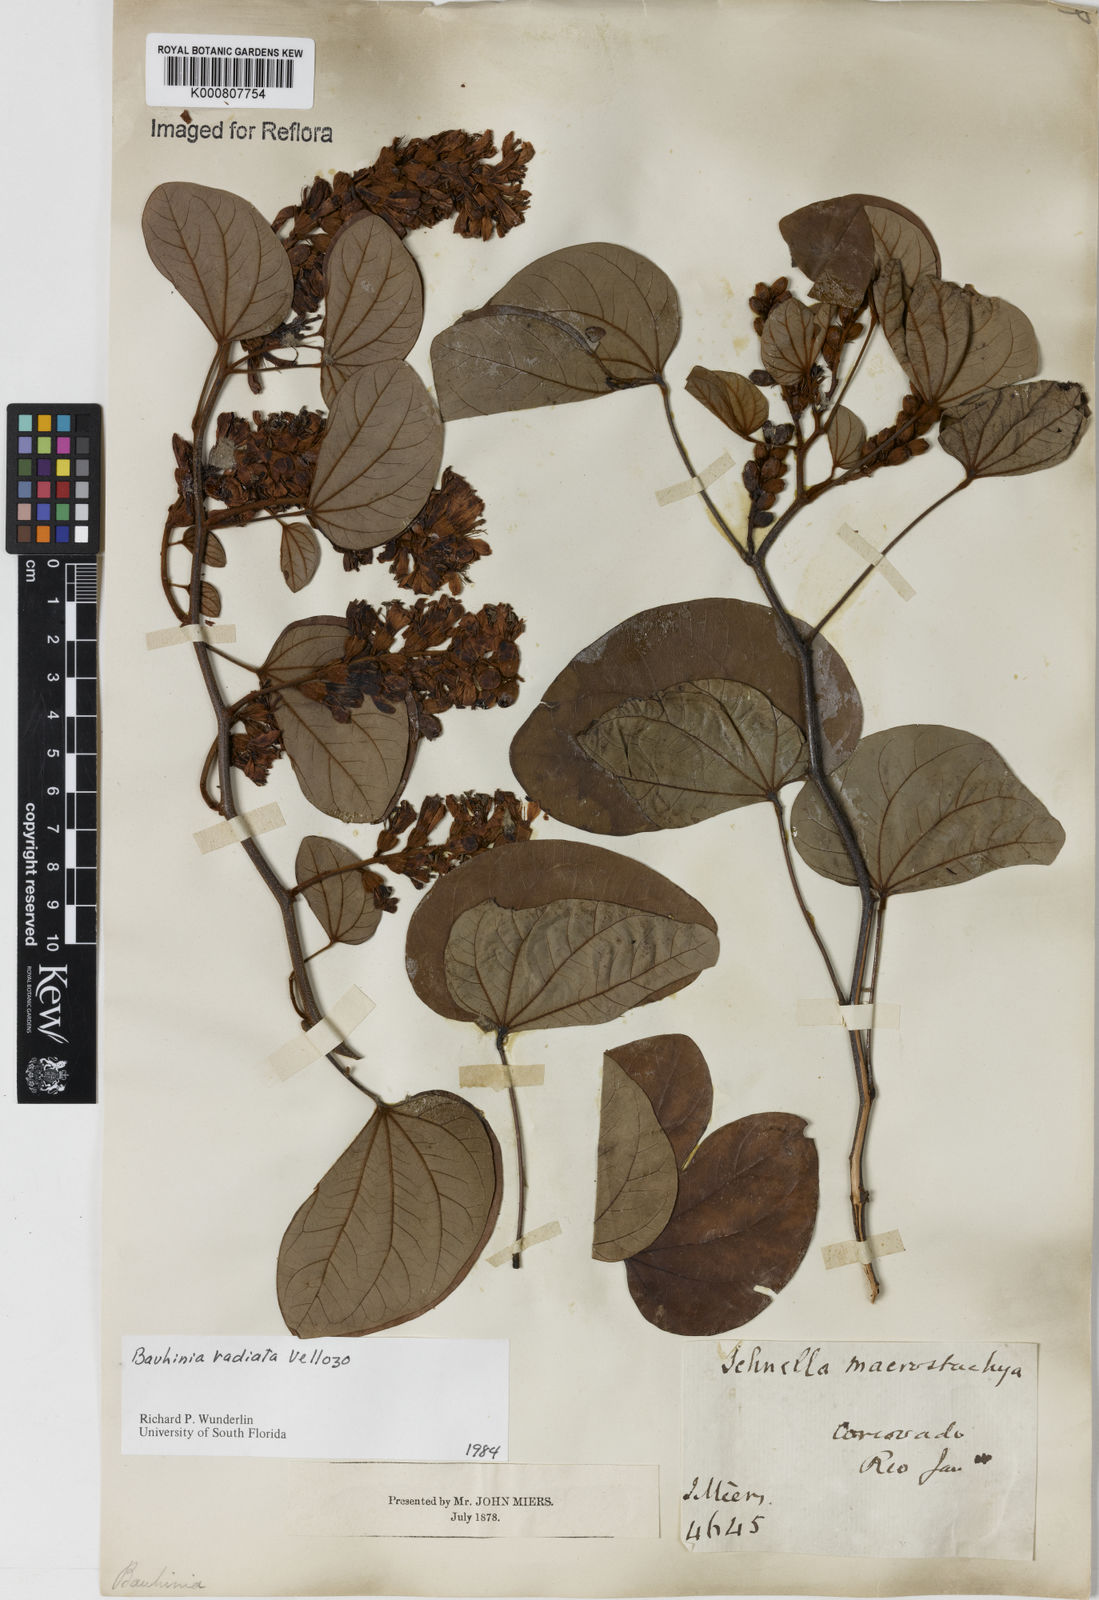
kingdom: Plantae
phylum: Tracheophyta
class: Magnoliopsida
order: Fabales
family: Fabaceae
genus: Schnella
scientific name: Schnella macrostachya
